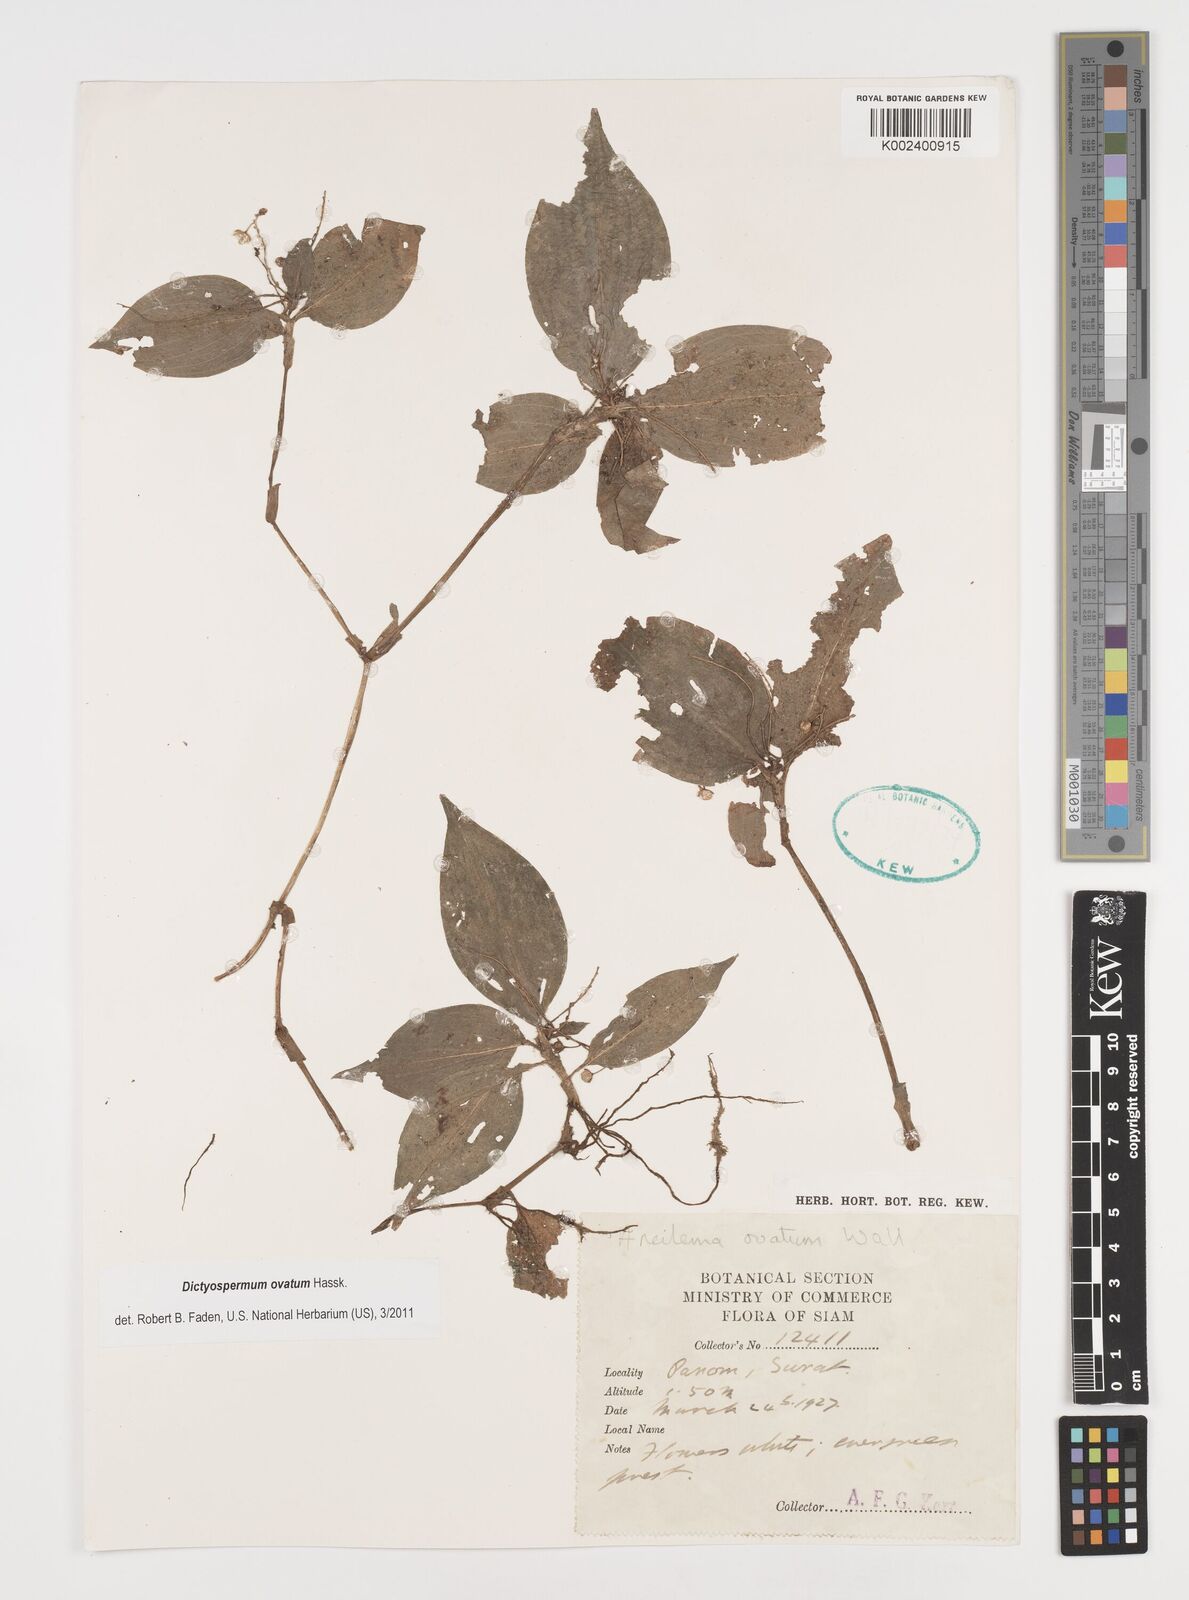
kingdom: Plantae
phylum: Tracheophyta
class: Liliopsida
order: Commelinales
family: Commelinaceae
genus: Dictyospermum
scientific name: Dictyospermum ovatum
